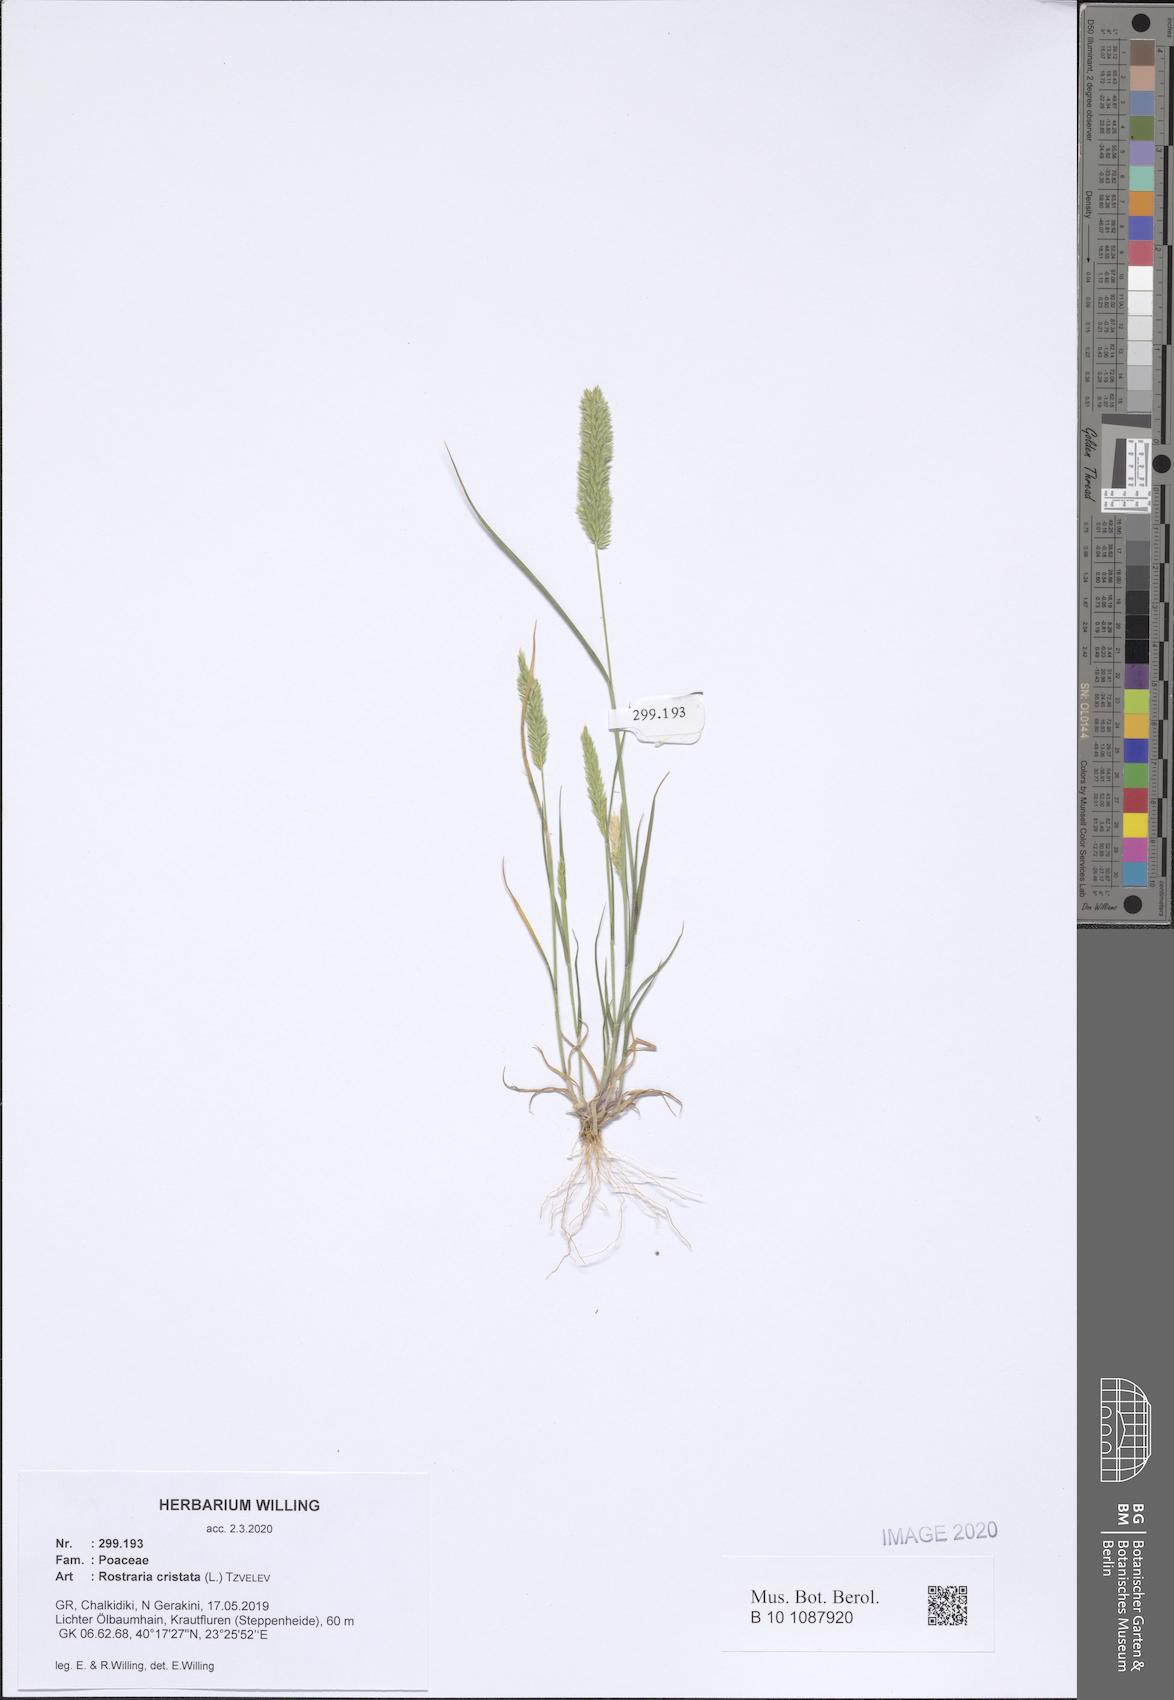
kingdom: Plantae
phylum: Tracheophyta
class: Liliopsida
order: Poales
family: Poaceae
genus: Rostraria
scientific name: Rostraria cristata
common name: Mediterranean hair-grass
